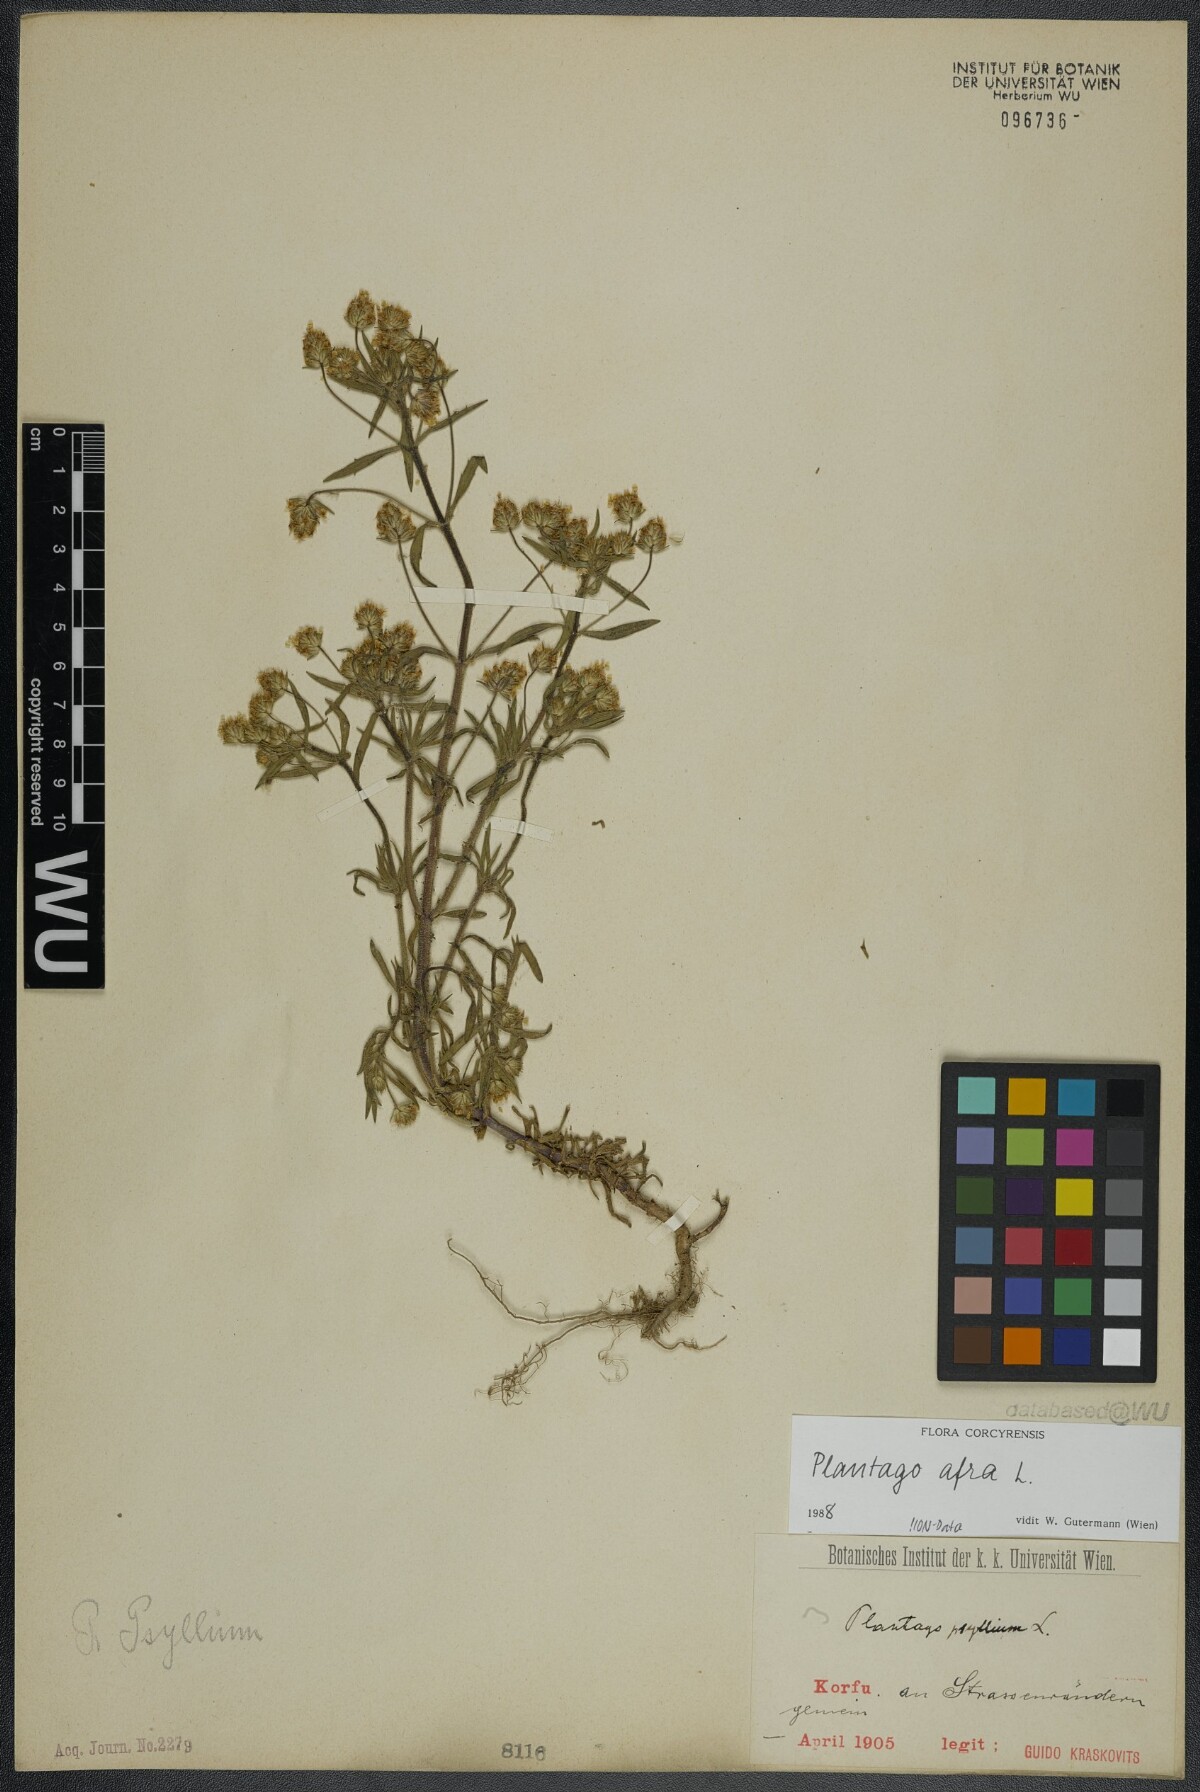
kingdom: Plantae
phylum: Tracheophyta
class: Magnoliopsida
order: Lamiales
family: Plantaginaceae
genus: Plantago
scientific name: Plantago afra
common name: Glandular plantain
